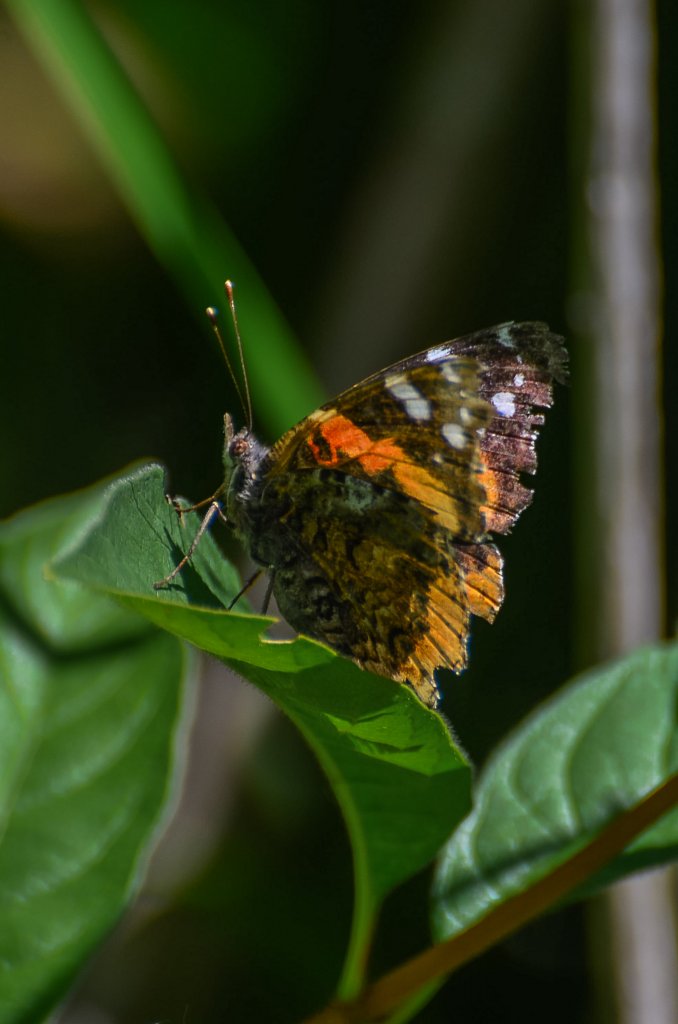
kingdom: Animalia
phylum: Arthropoda
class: Insecta
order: Lepidoptera
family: Nymphalidae
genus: Vanessa
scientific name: Vanessa atalanta
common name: Red Admiral
